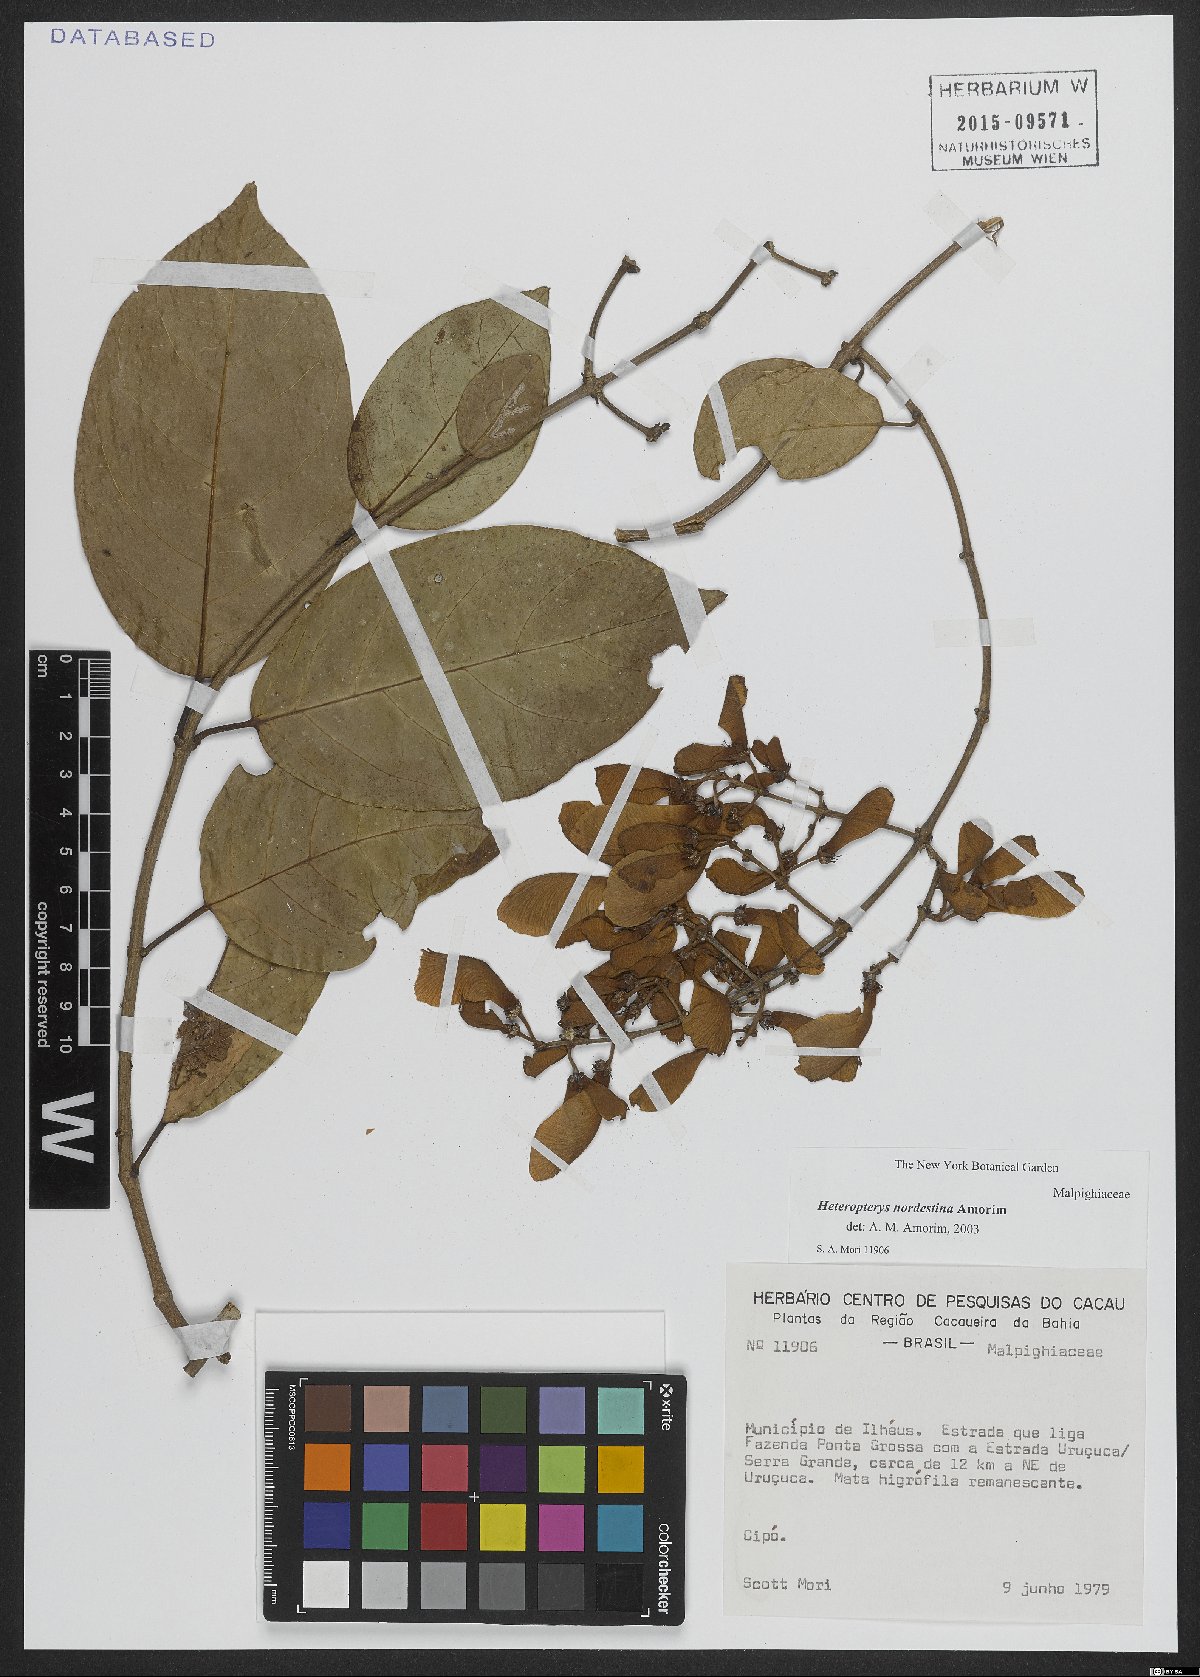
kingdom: Plantae
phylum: Tracheophyta
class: Magnoliopsida
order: Malpighiales
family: Malpighiaceae
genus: Heteropterys
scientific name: Heteropterys nordestina
